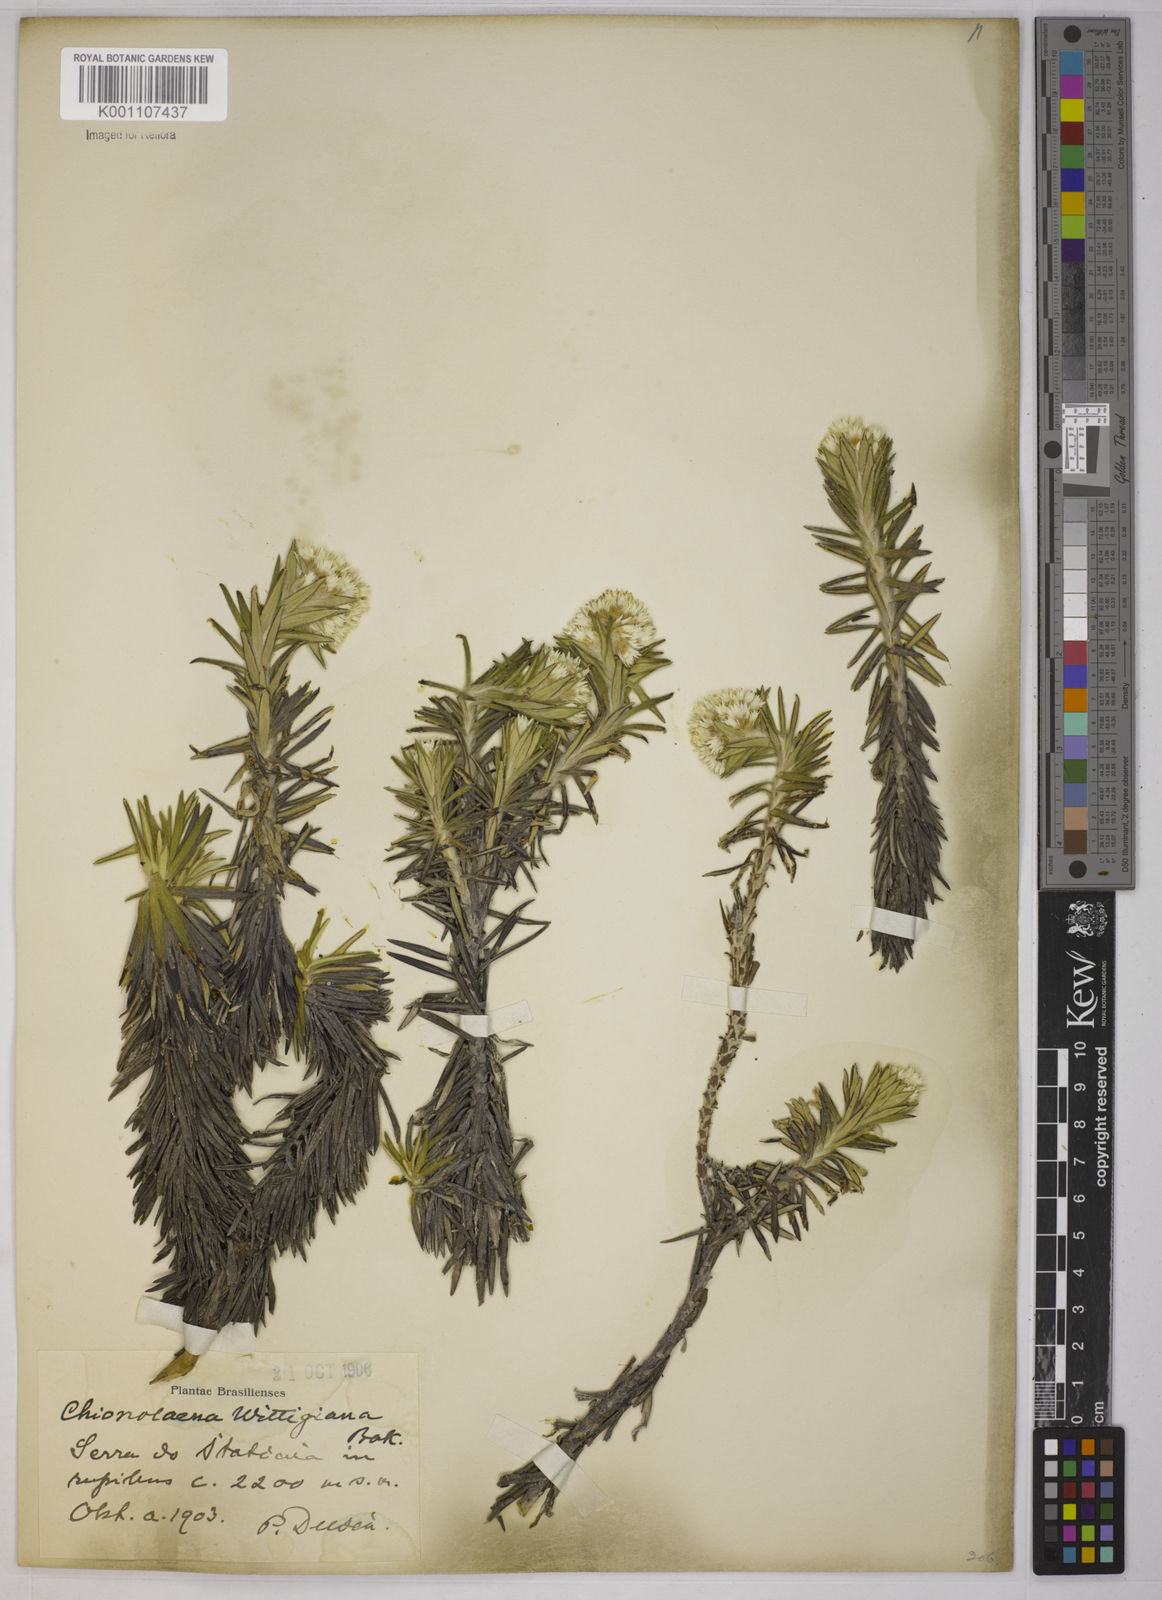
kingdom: Plantae
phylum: Tracheophyta
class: Magnoliopsida
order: Asterales
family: Asteraceae
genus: Chionolaena
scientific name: Chionolaena wittigiana
